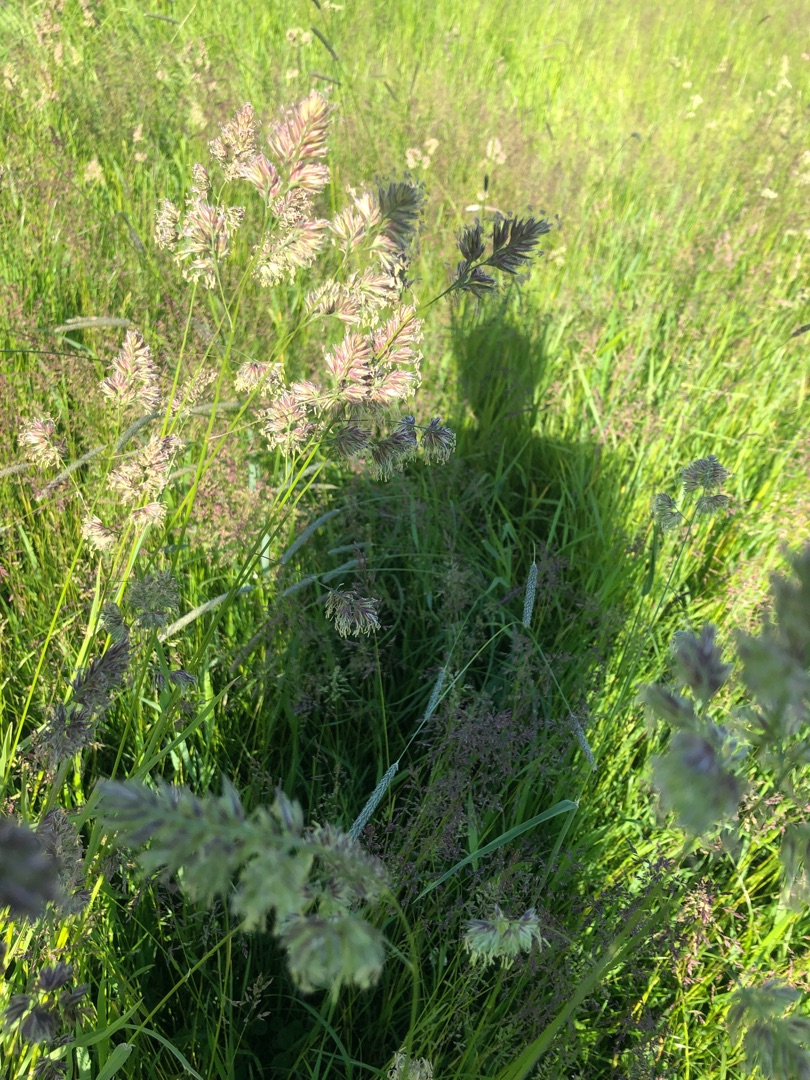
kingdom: Plantae
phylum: Tracheophyta
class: Liliopsida
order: Poales
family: Poaceae
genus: Dactylis
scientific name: Dactylis glomerata
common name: Almindelig hundegræs
